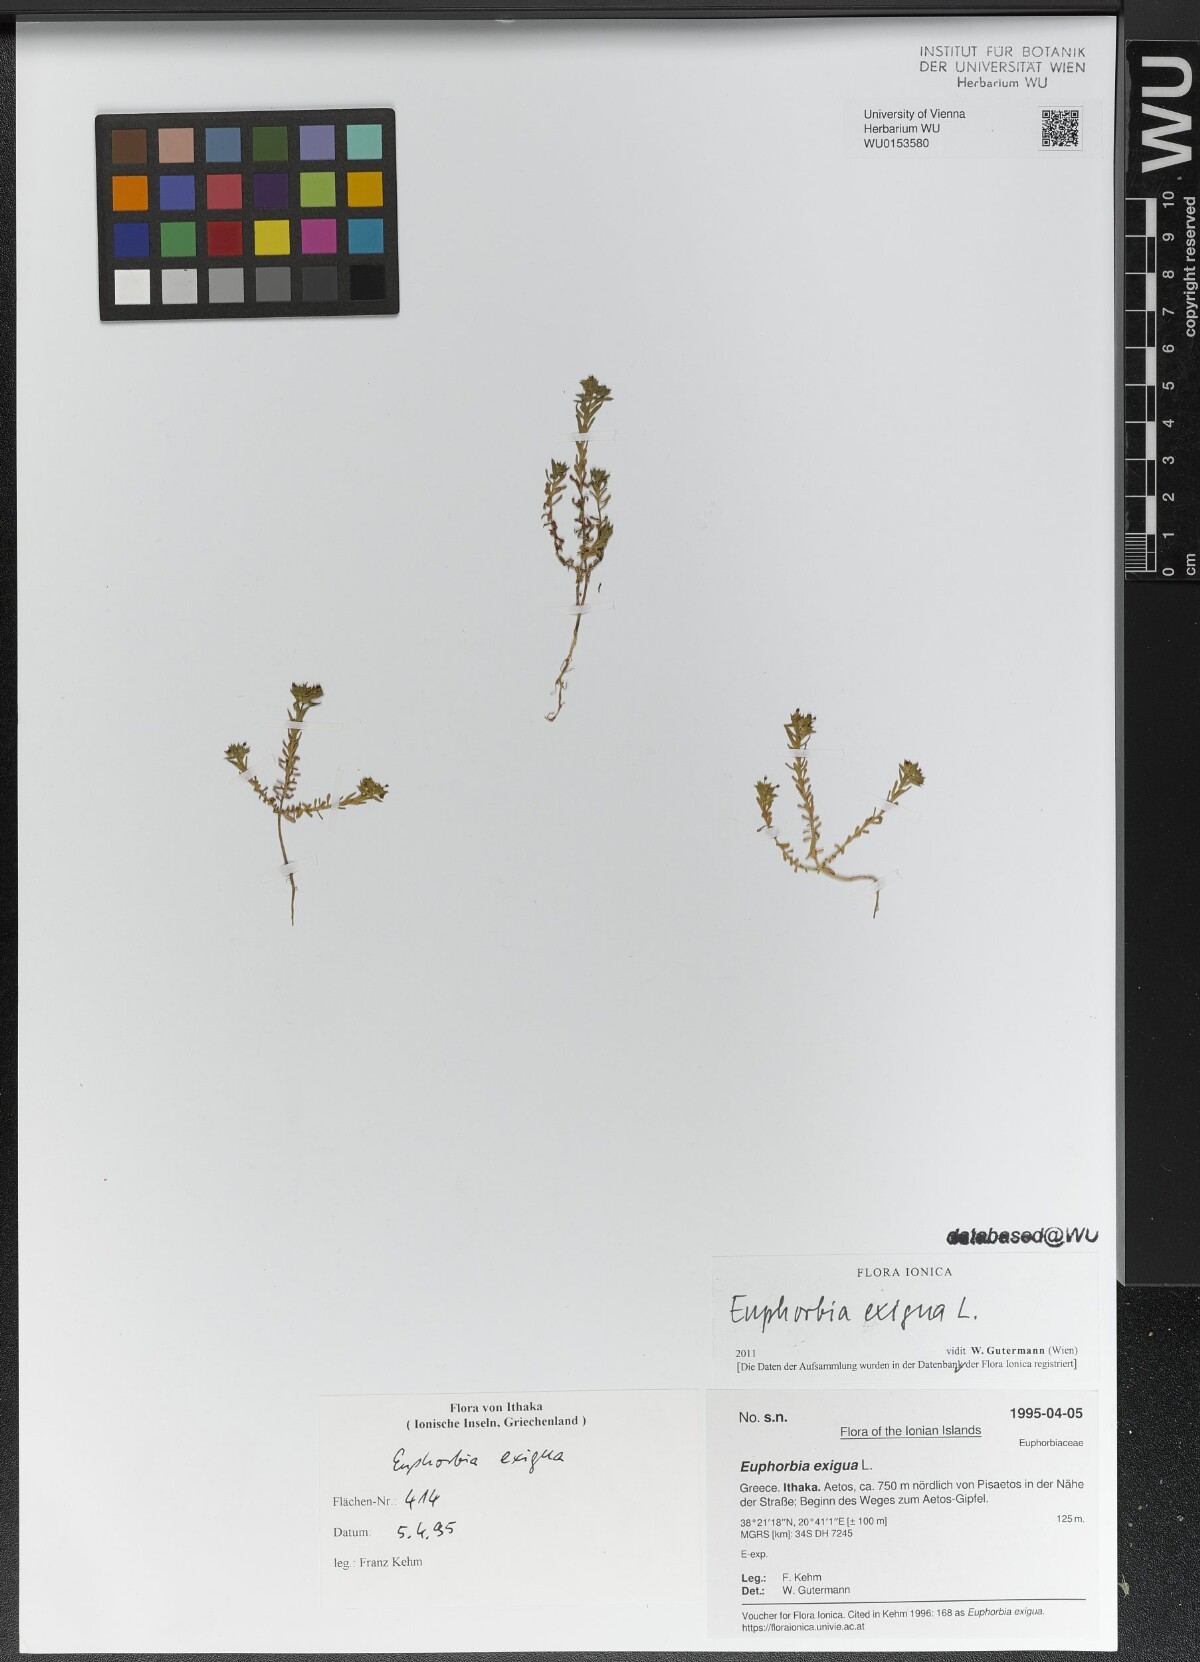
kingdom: Plantae
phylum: Tracheophyta
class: Magnoliopsida
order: Malpighiales
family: Euphorbiaceae
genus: Euphorbia
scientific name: Euphorbia exigua
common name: Dwarf spurge
